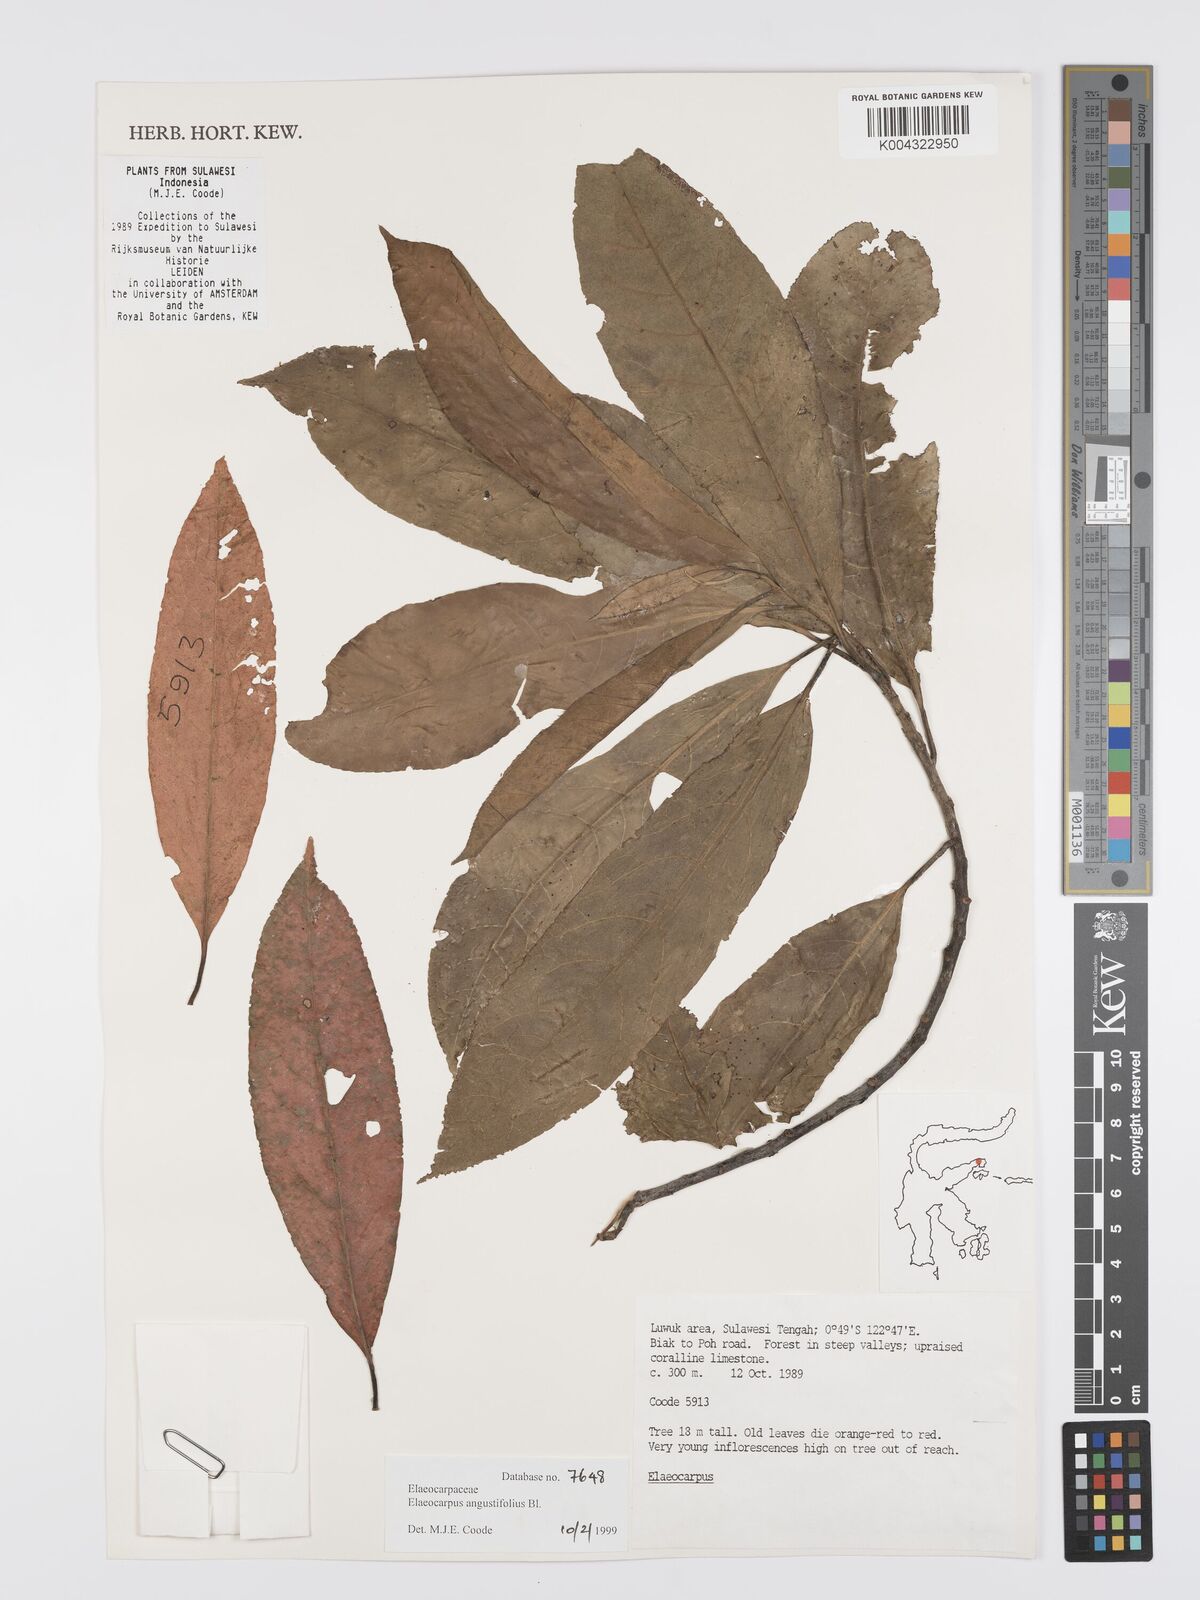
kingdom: Plantae
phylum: Tracheophyta
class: Magnoliopsida
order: Oxalidales
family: Elaeocarpaceae
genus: Elaeocarpus
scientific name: Elaeocarpus
